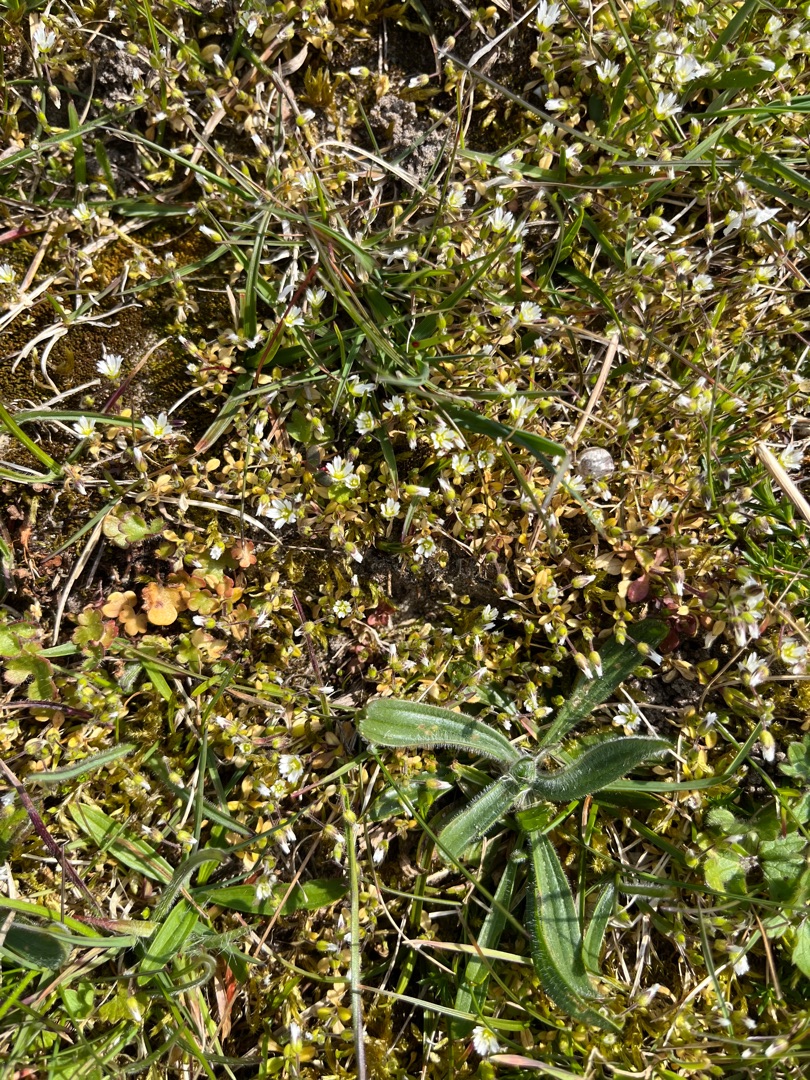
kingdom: Plantae
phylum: Tracheophyta
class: Magnoliopsida
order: Caryophyllales
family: Caryophyllaceae
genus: Cerastium
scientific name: Cerastium semidecandrum
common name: Femhannet hønsetarm
